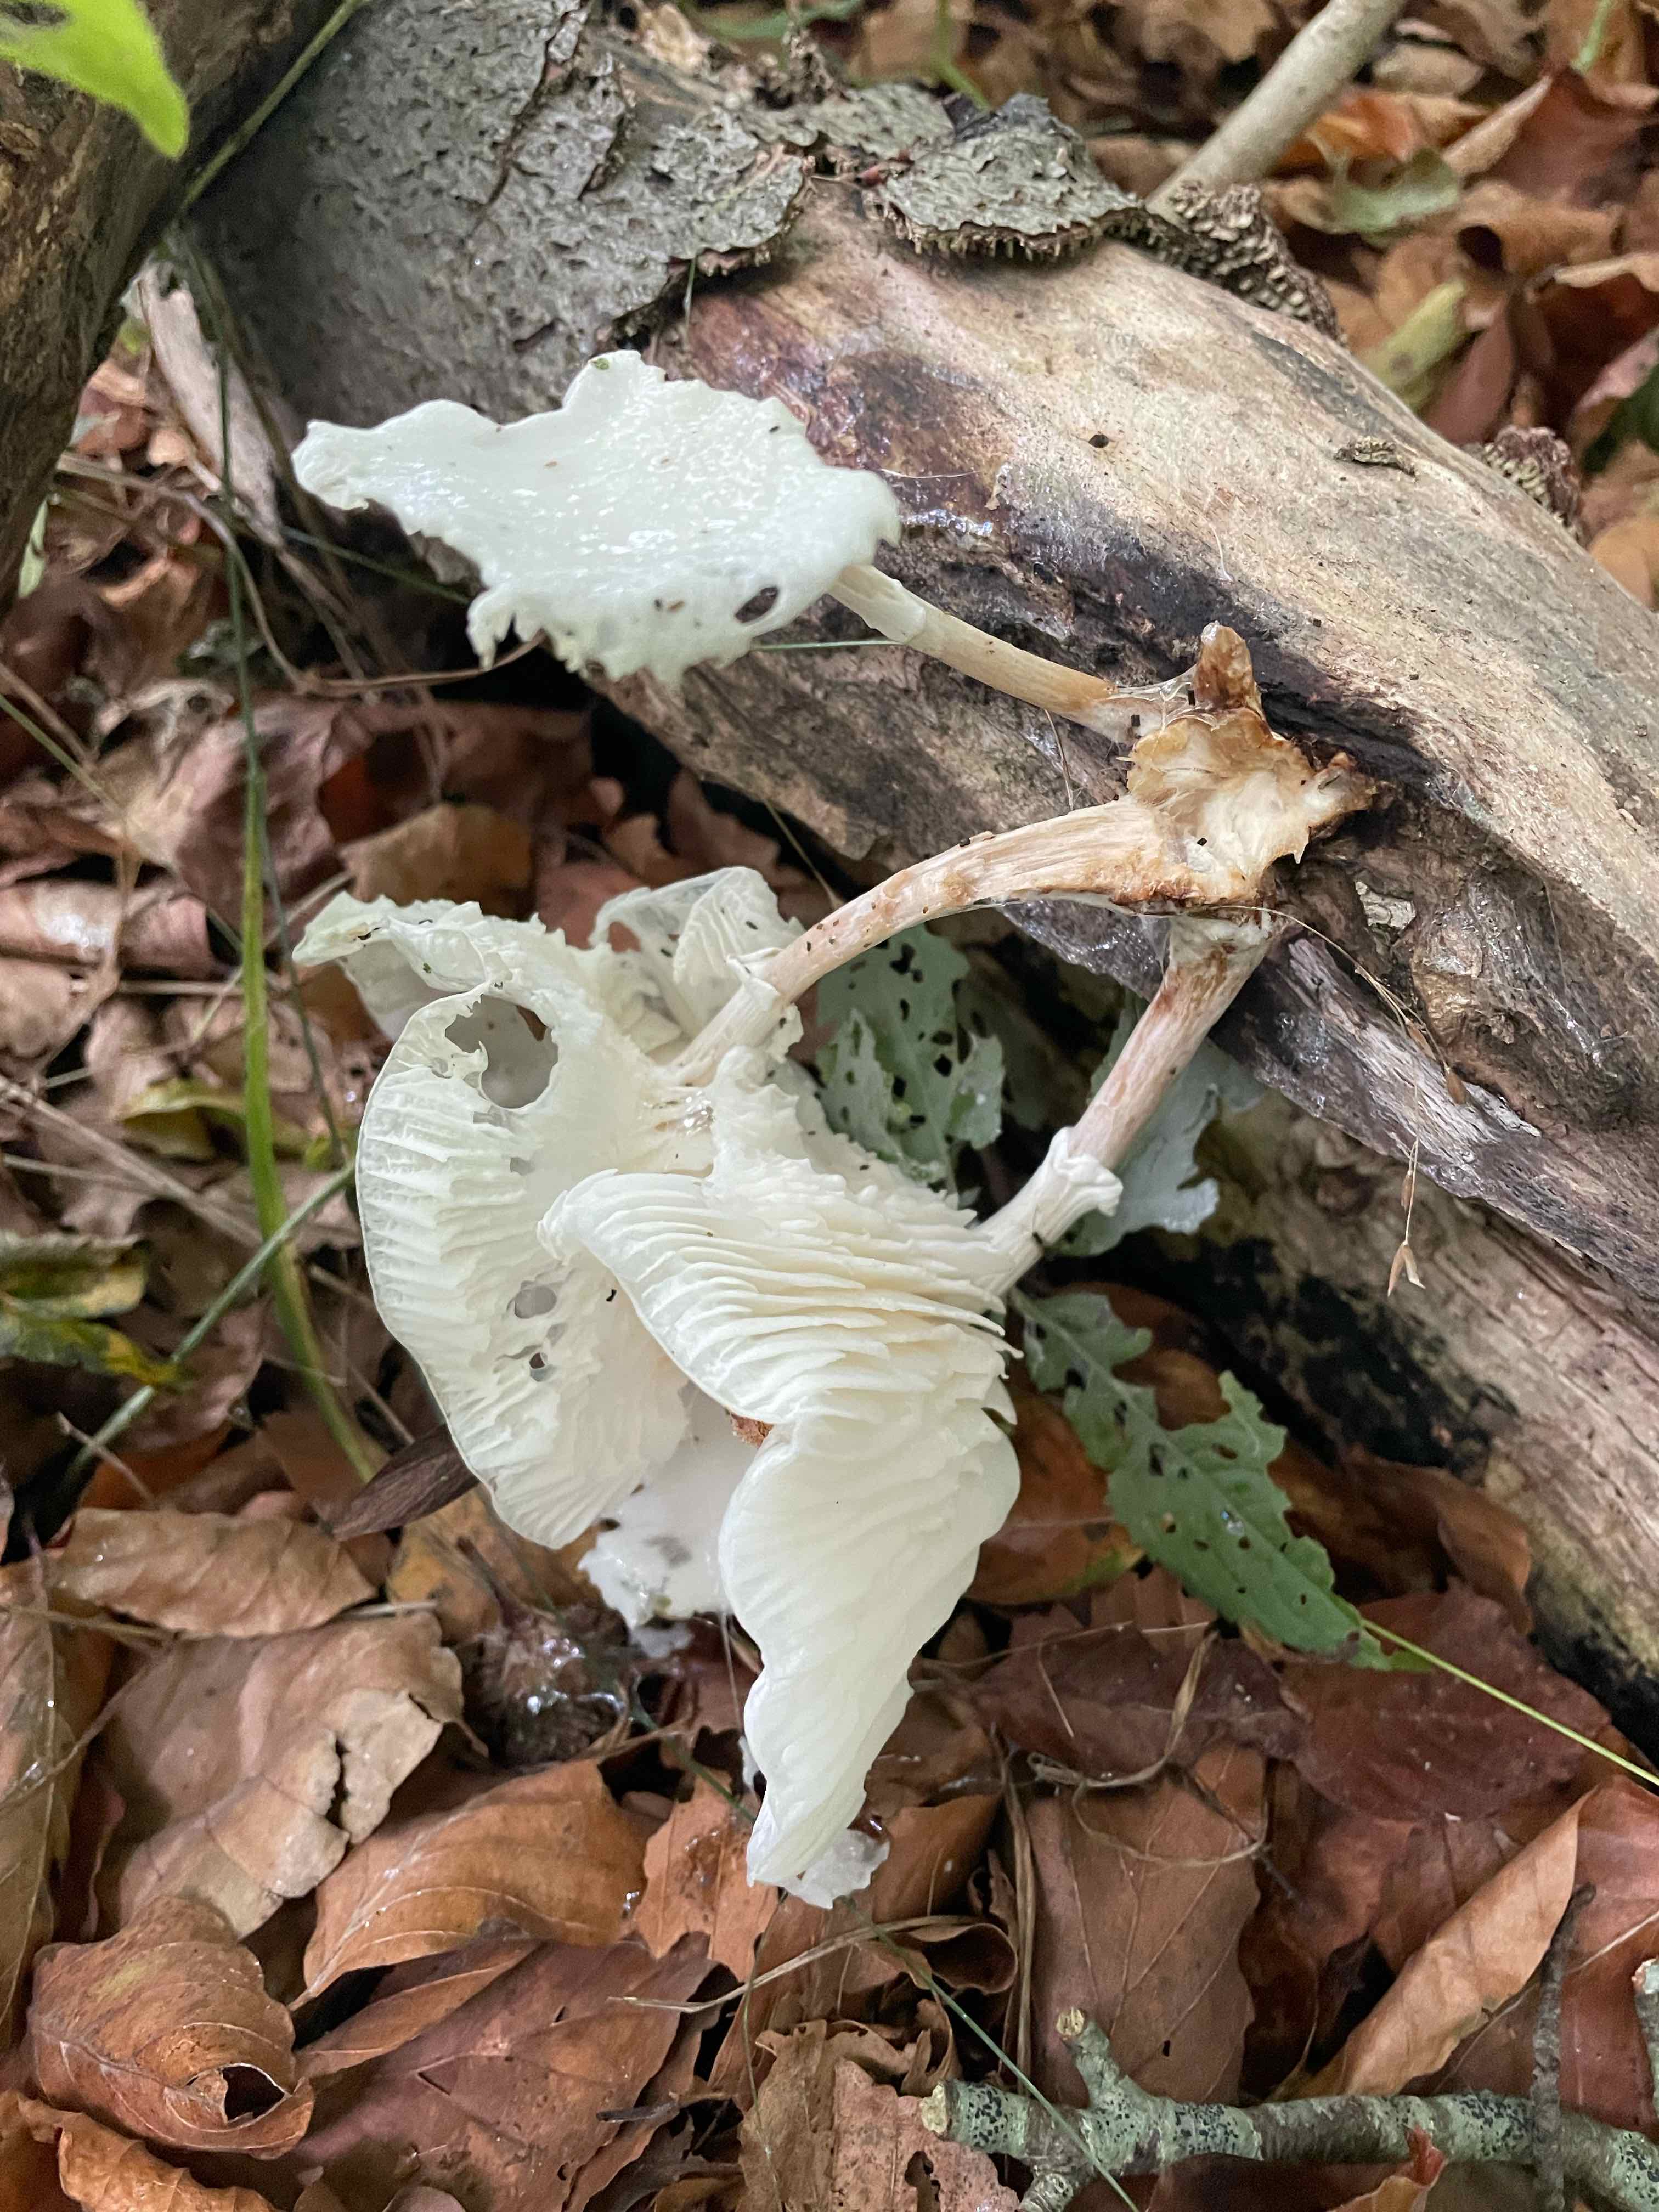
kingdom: Fungi
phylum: Basidiomycota
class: Agaricomycetes
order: Agaricales
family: Physalacriaceae
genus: Mucidula
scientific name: Mucidula mucida
